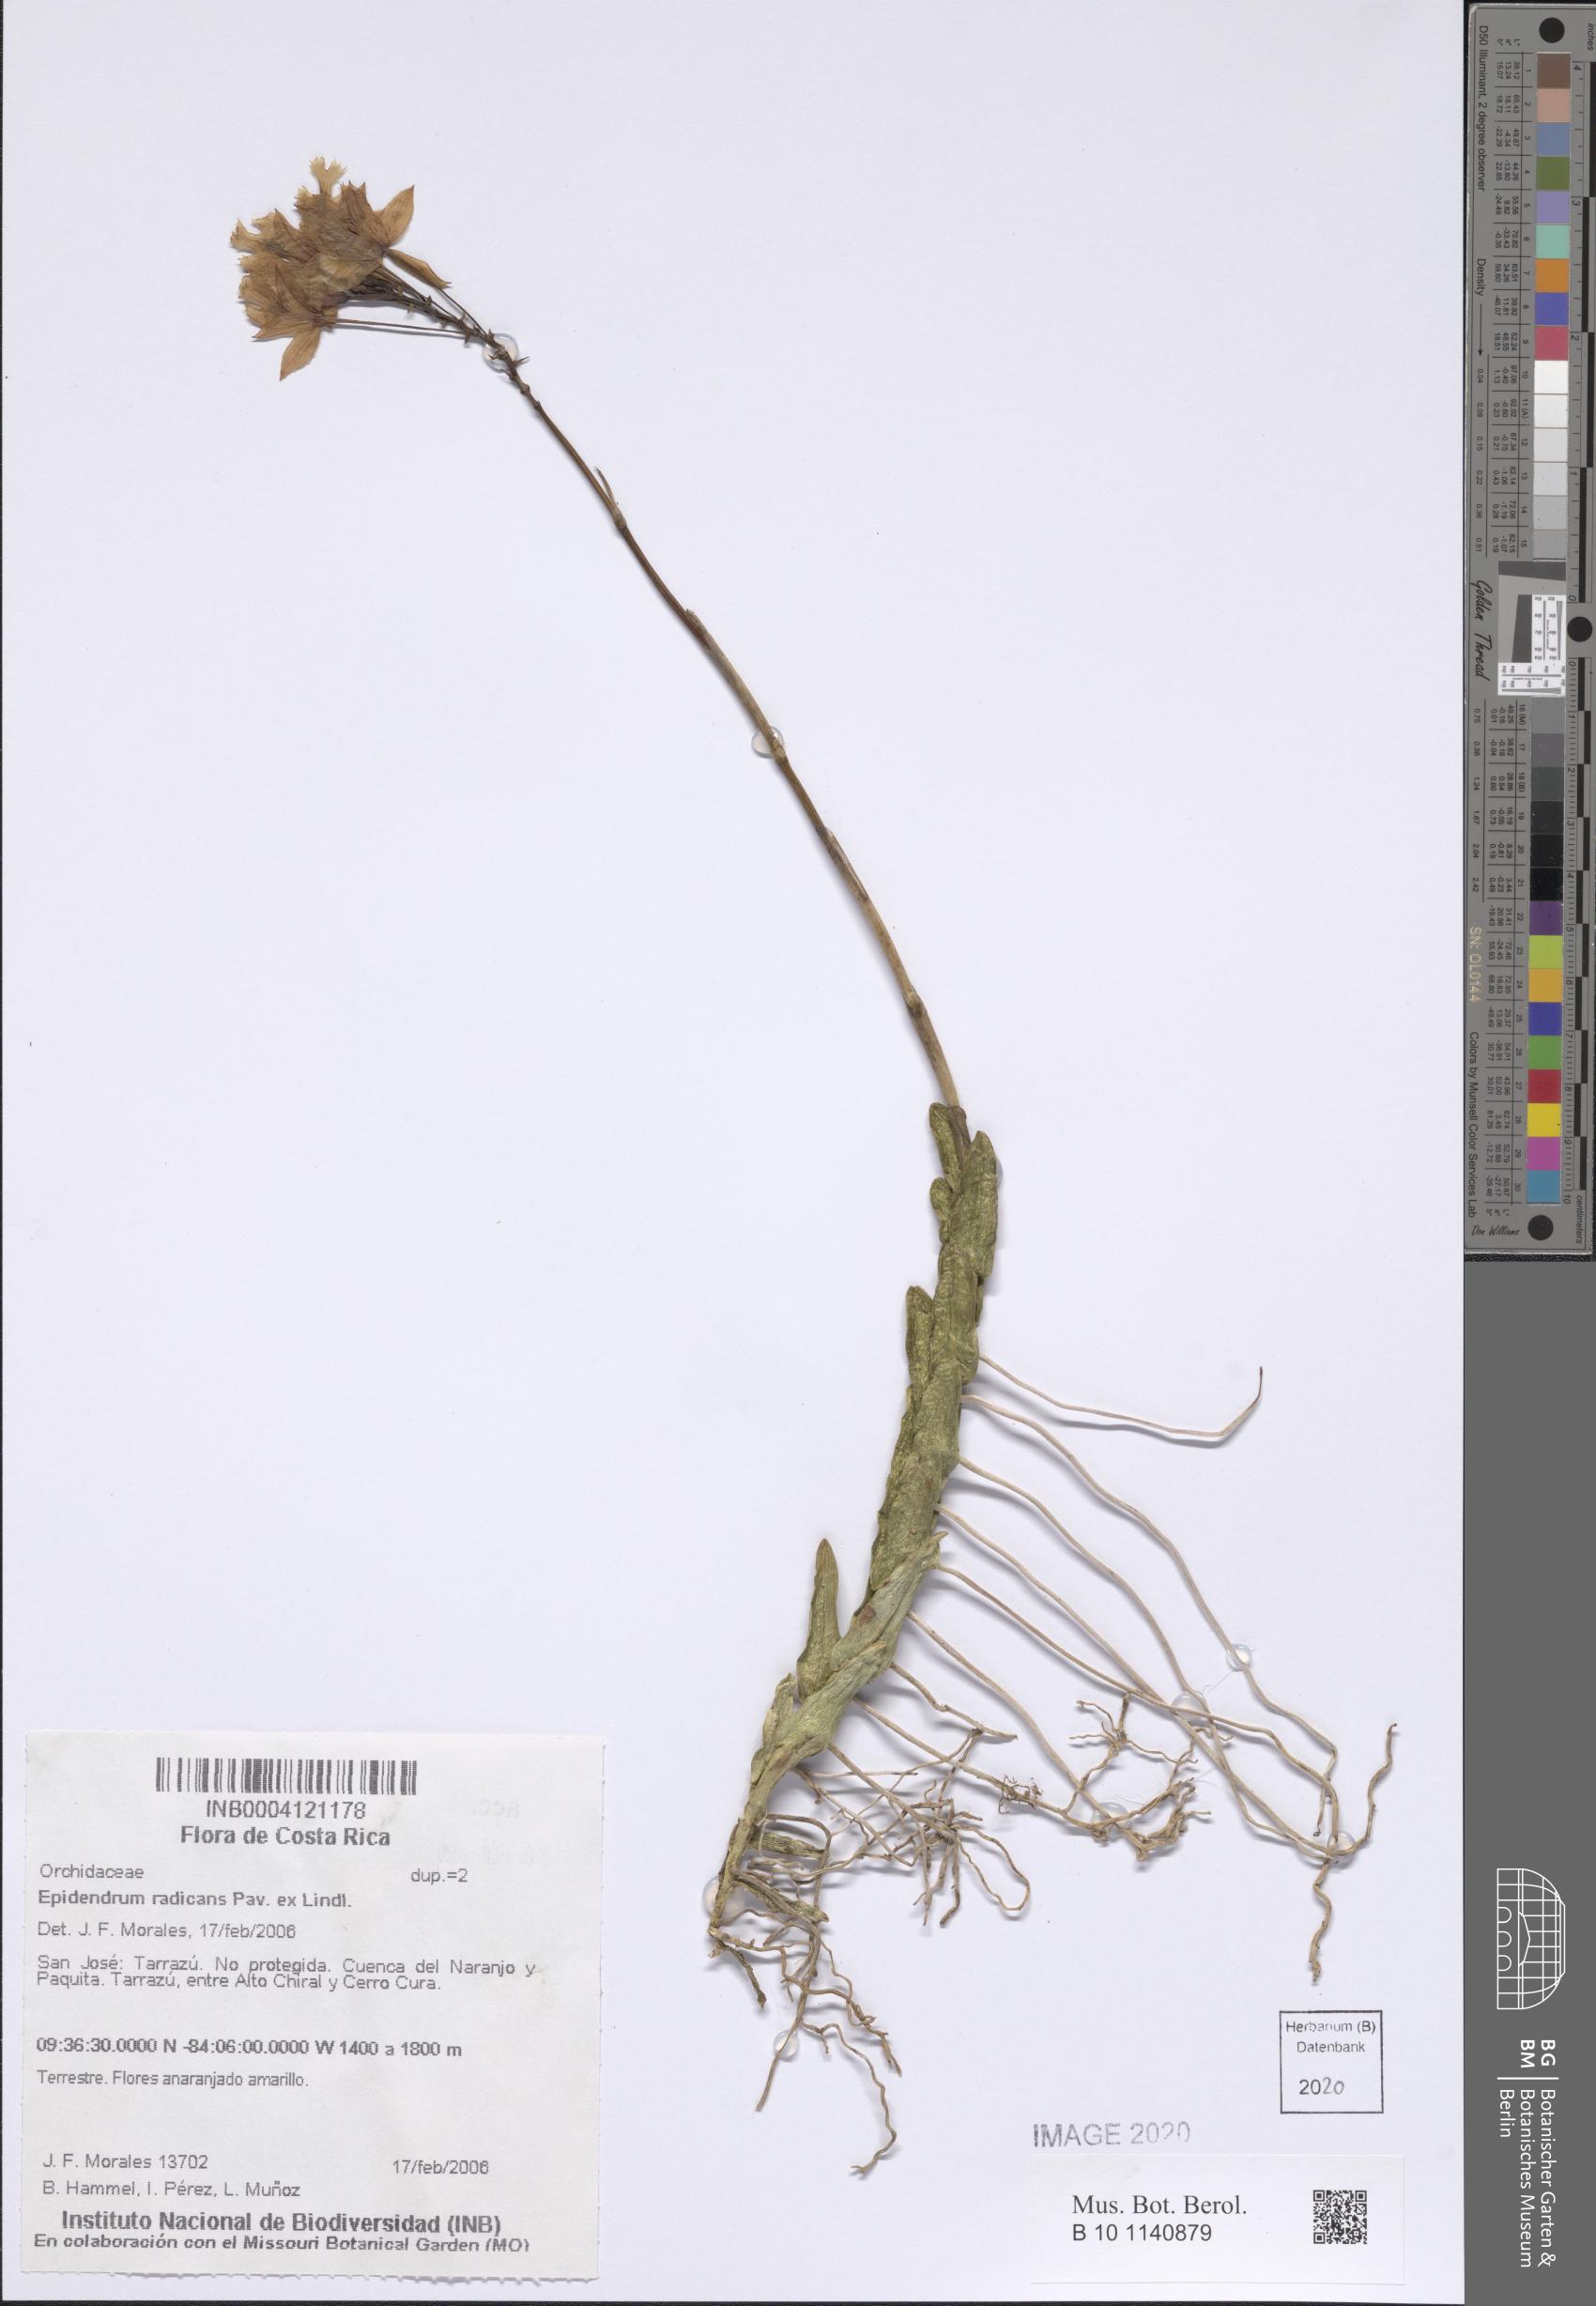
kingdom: Plantae
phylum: Tracheophyta
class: Liliopsida
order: Asparagales
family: Orchidaceae
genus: Epidendrum
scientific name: Epidendrum radicans
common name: Fire star orchid
